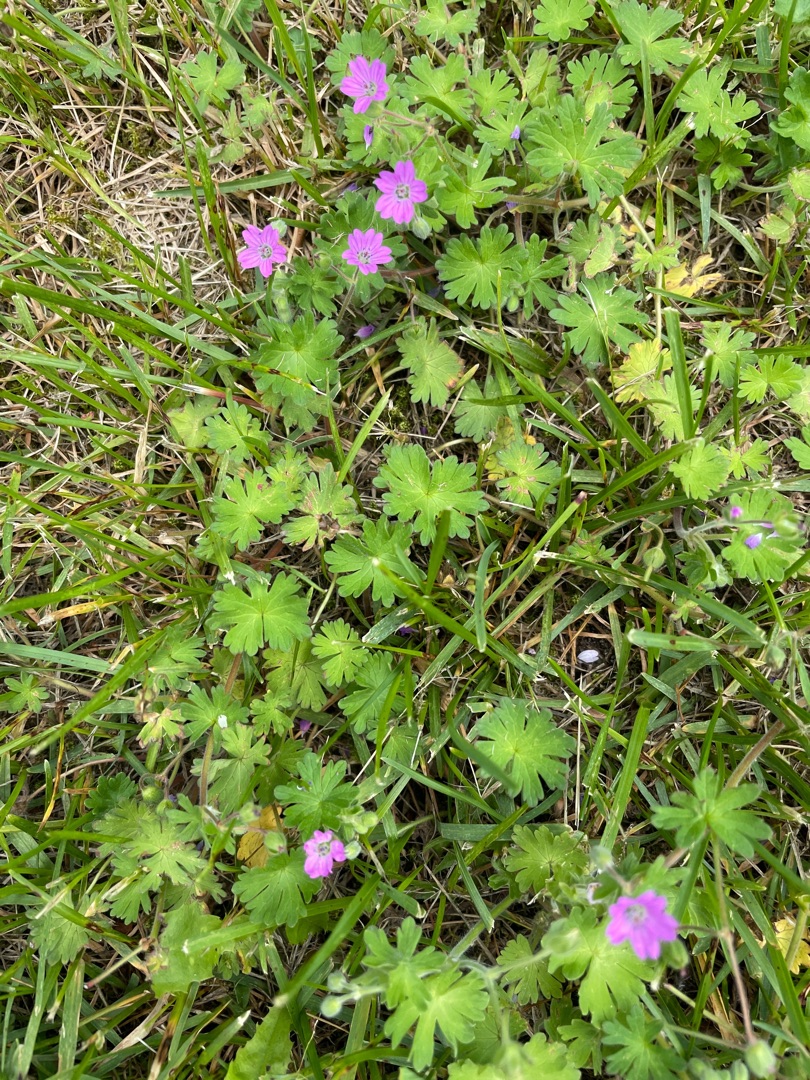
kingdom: Plantae
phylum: Tracheophyta
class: Magnoliopsida
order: Geraniales
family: Geraniaceae
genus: Geranium
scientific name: Geranium molle
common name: Blød storkenæb
